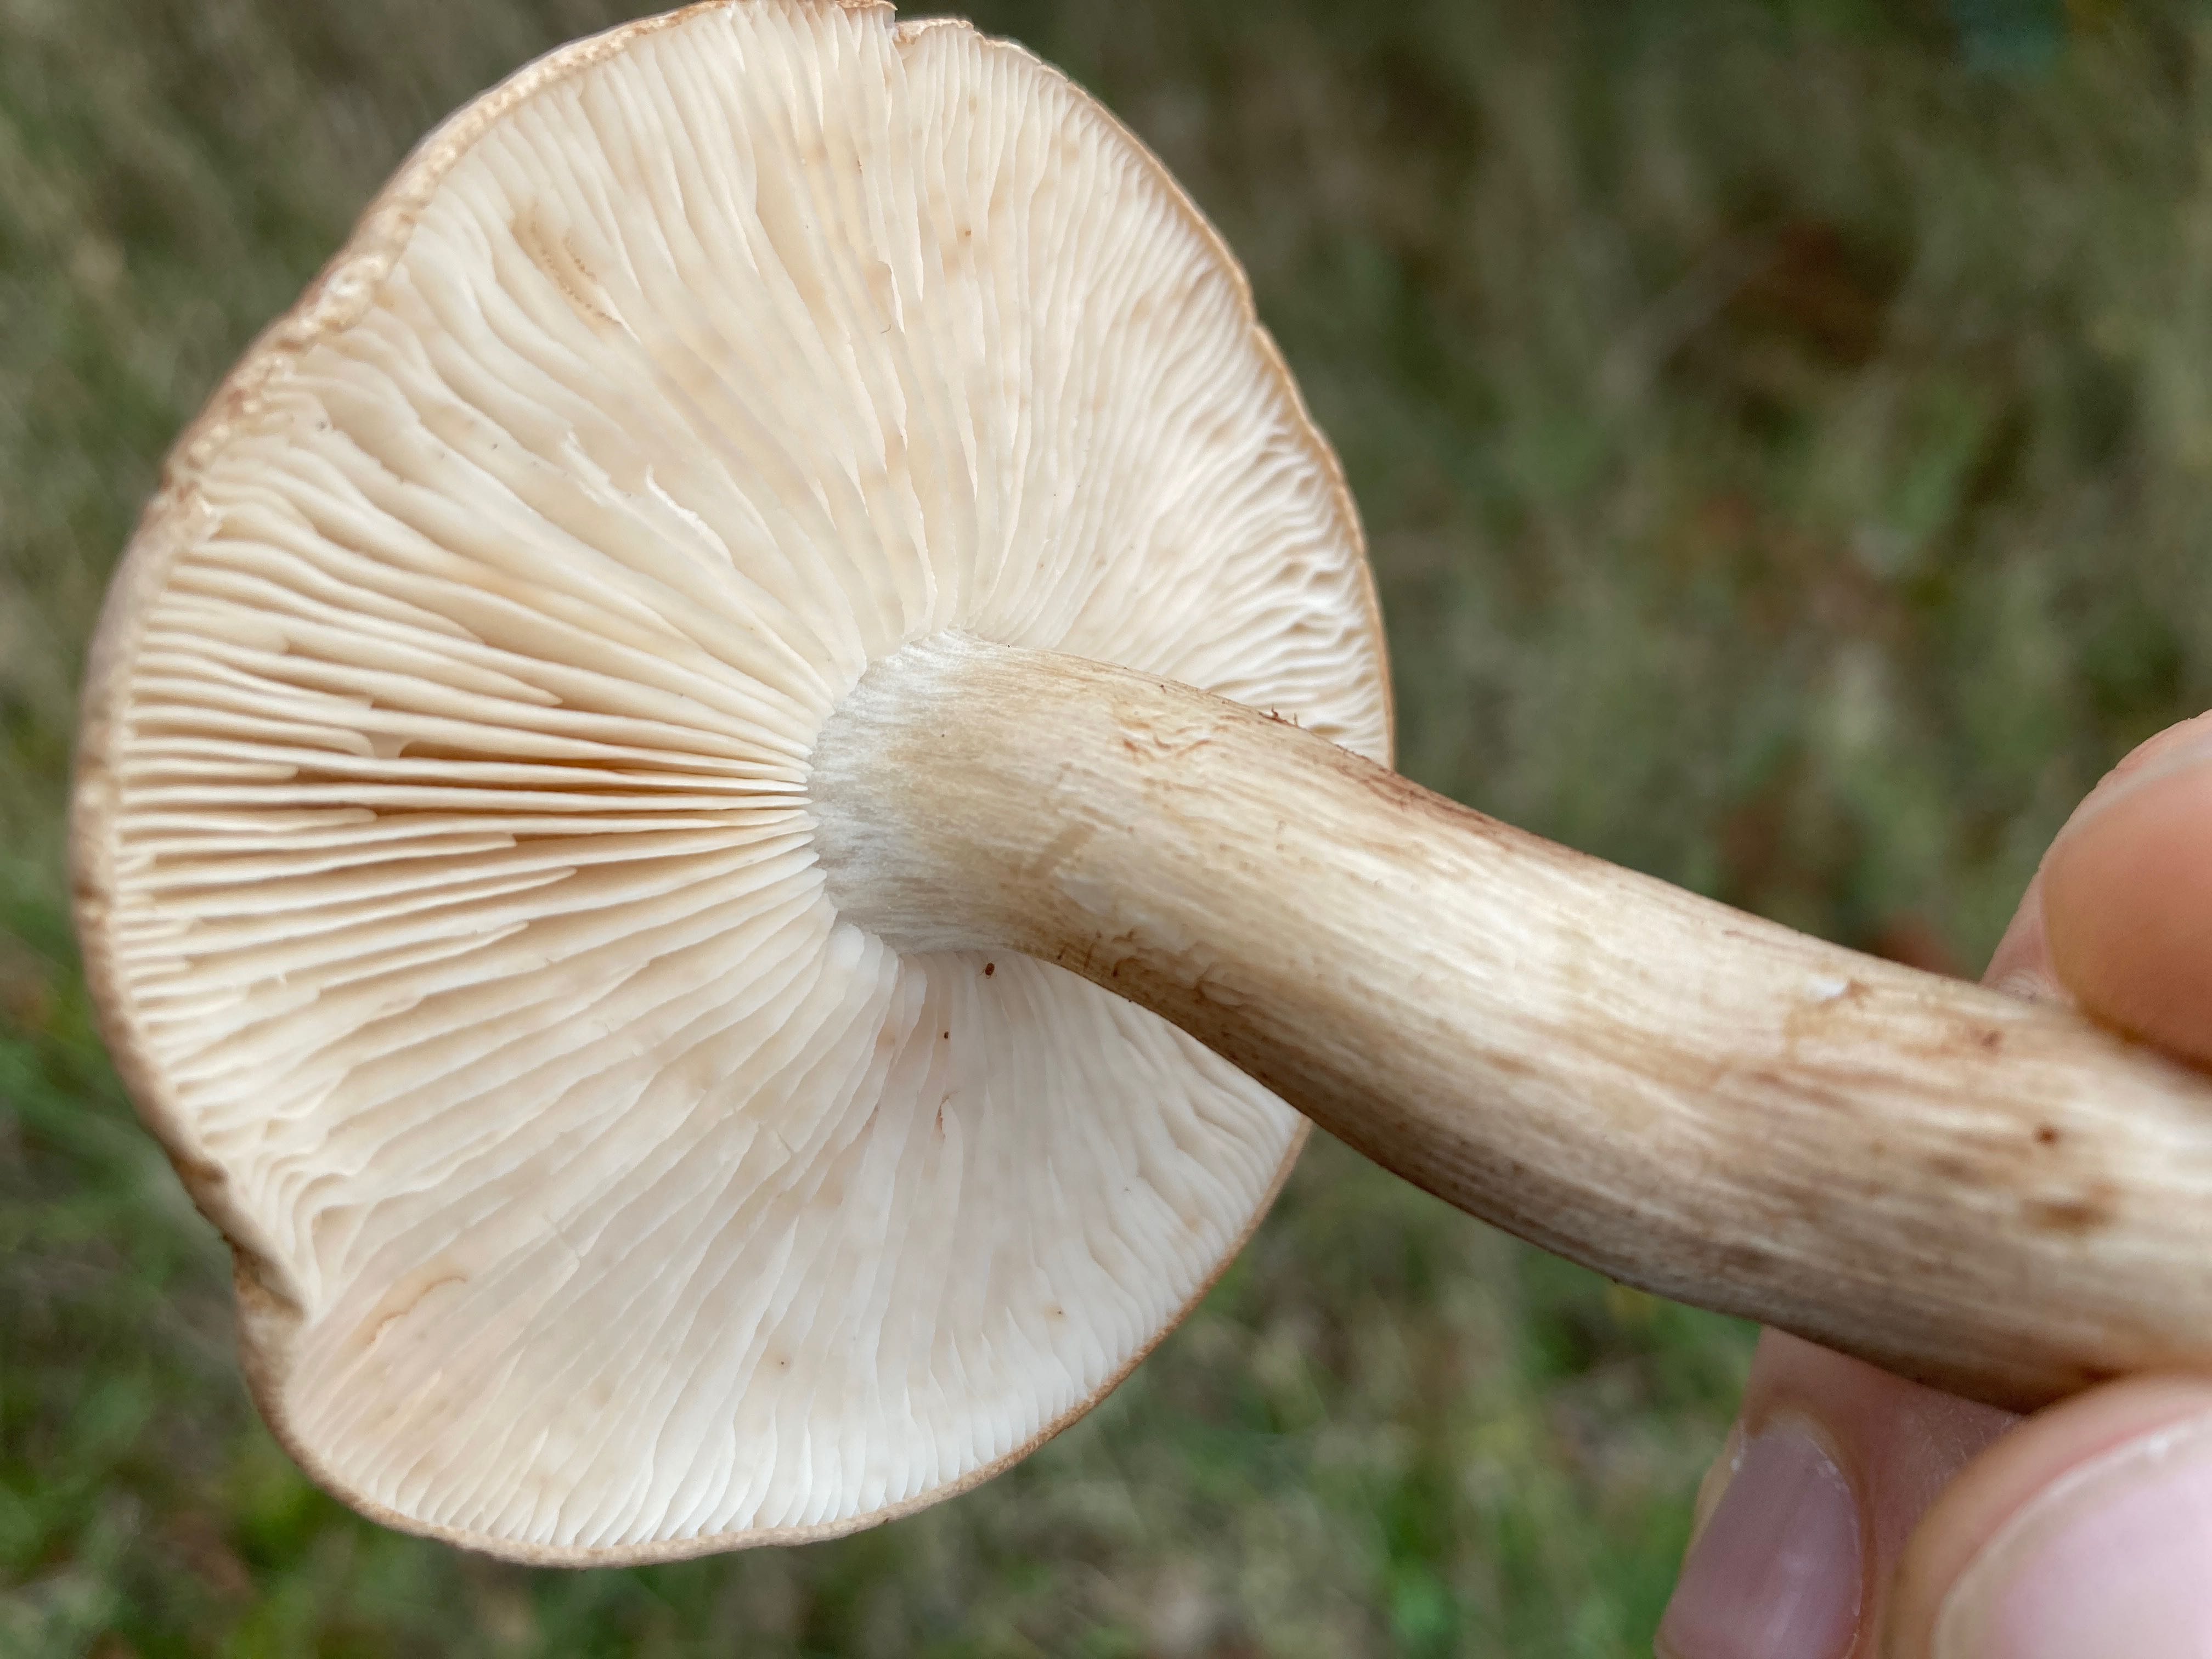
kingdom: Fungi
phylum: Basidiomycota
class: Agaricomycetes
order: Agaricales
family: Tricholomataceae
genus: Tricholoma
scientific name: Tricholoma imbricatum
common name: skællet ridderhat
